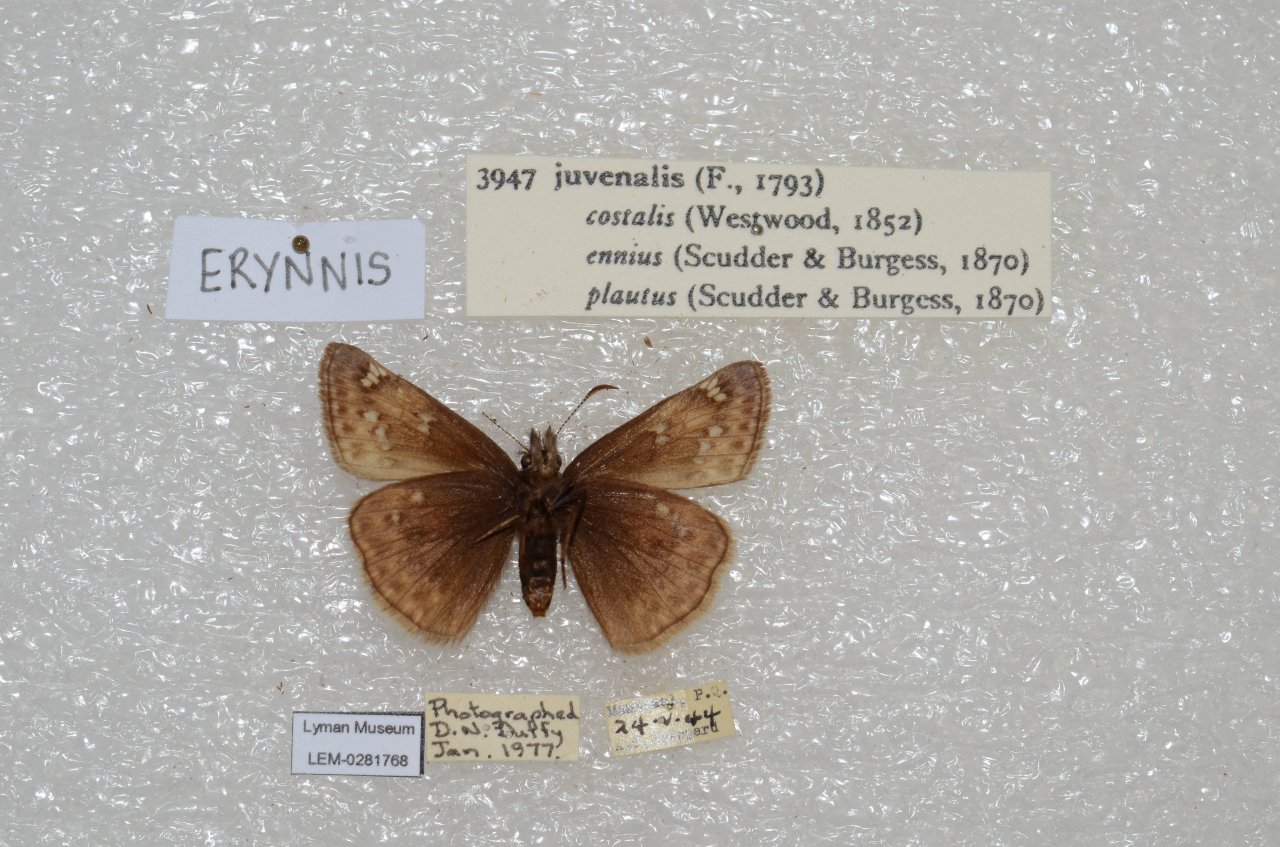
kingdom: Animalia
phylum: Arthropoda
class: Insecta
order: Lepidoptera
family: Hesperiidae
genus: Gesta
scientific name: Gesta
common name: Juvenal's Duskywing
